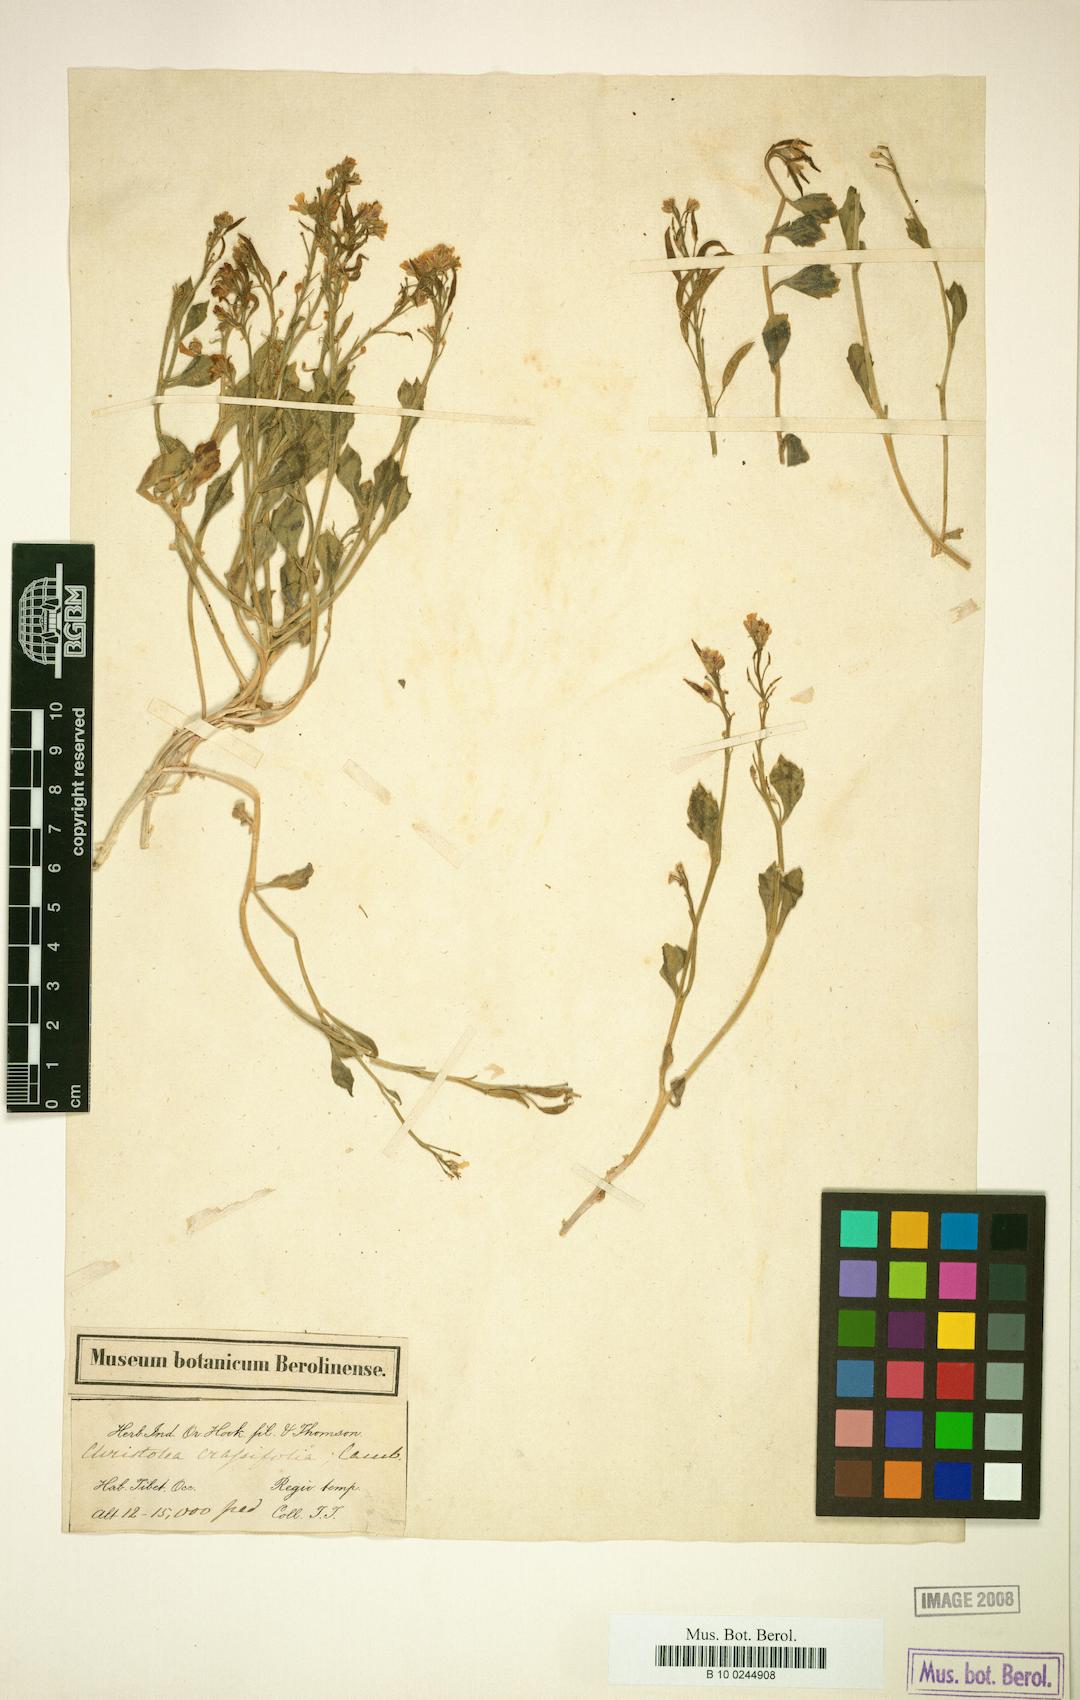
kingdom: Plantae
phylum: Tracheophyta
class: Magnoliopsida
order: Brassicales
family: Brassicaceae
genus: Christolea
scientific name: Christolea crassifolia
